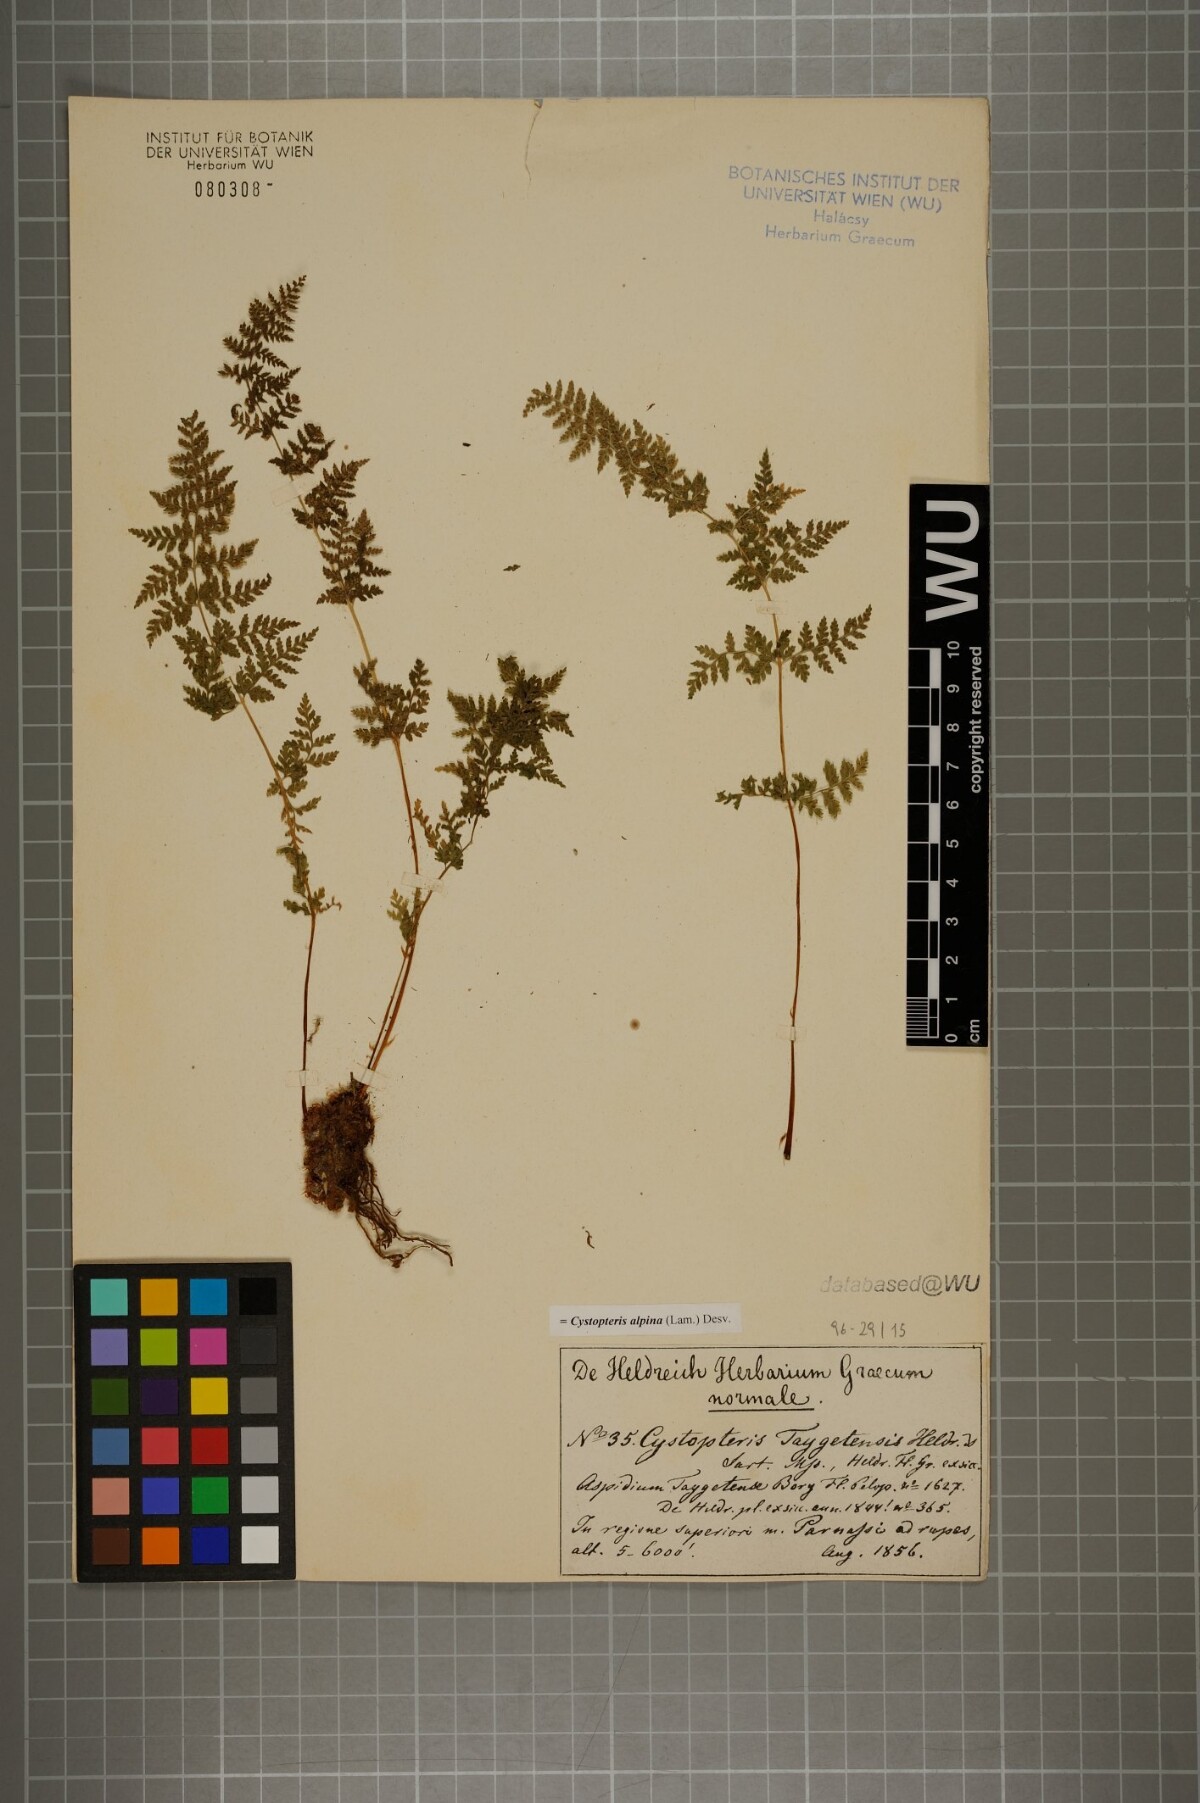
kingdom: Plantae
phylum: Tracheophyta
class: Polypodiopsida
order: Polypodiales
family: Cystopteridaceae
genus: Cystopteris
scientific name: Cystopteris alpina
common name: Alpine bladder-fern
